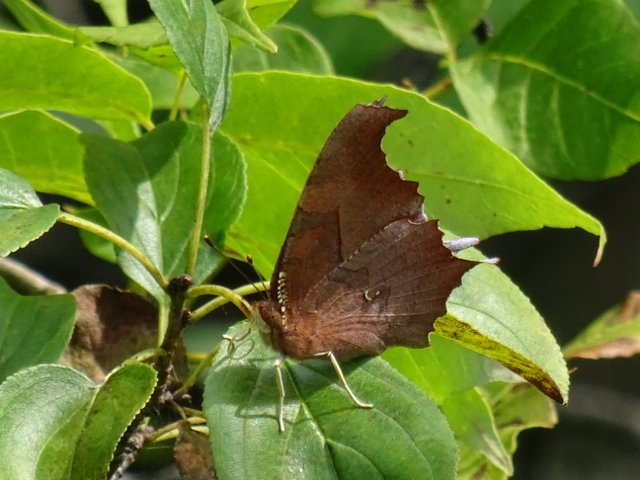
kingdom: Animalia
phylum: Arthropoda
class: Insecta
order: Lepidoptera
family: Nymphalidae
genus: Polygonia
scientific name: Polygonia interrogationis
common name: Question Mark
